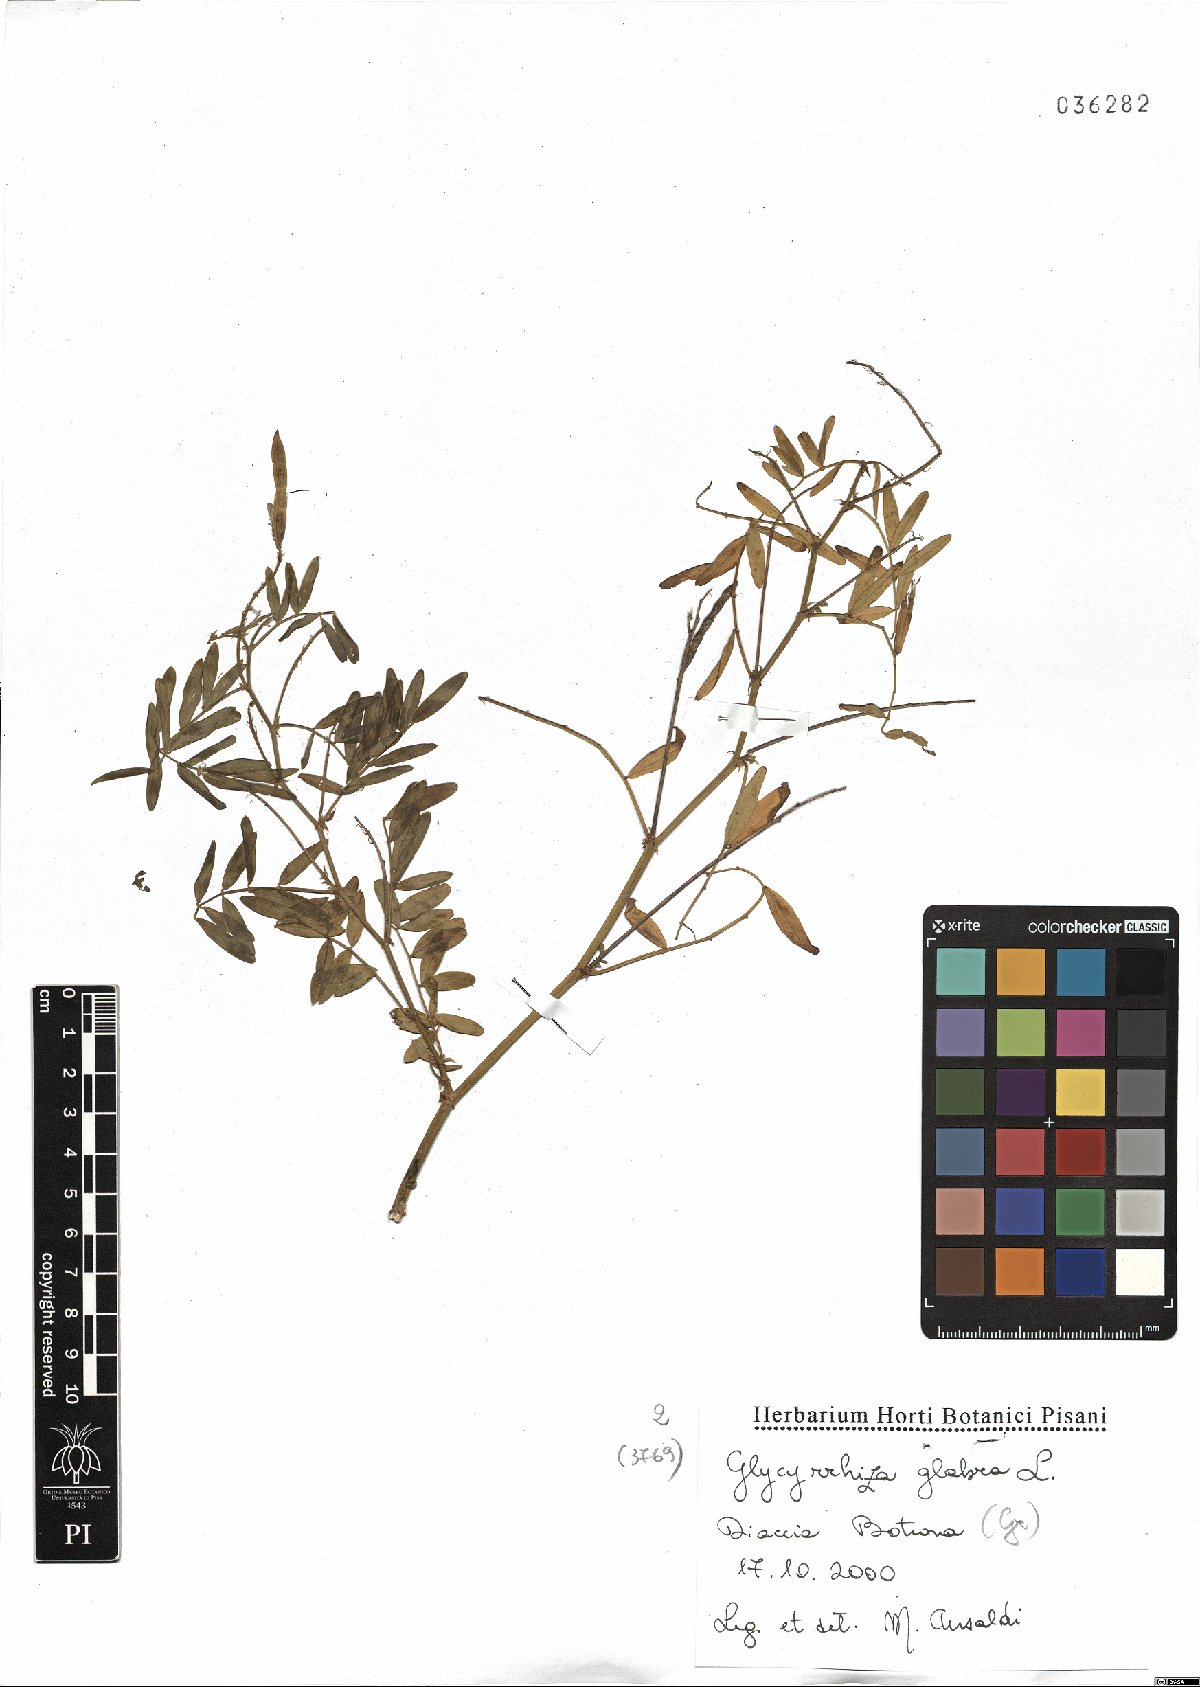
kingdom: Plantae
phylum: Tracheophyta
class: Magnoliopsida
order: Fabales
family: Fabaceae
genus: Glycyrrhiza
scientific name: Glycyrrhiza glabra
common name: Liquorice
